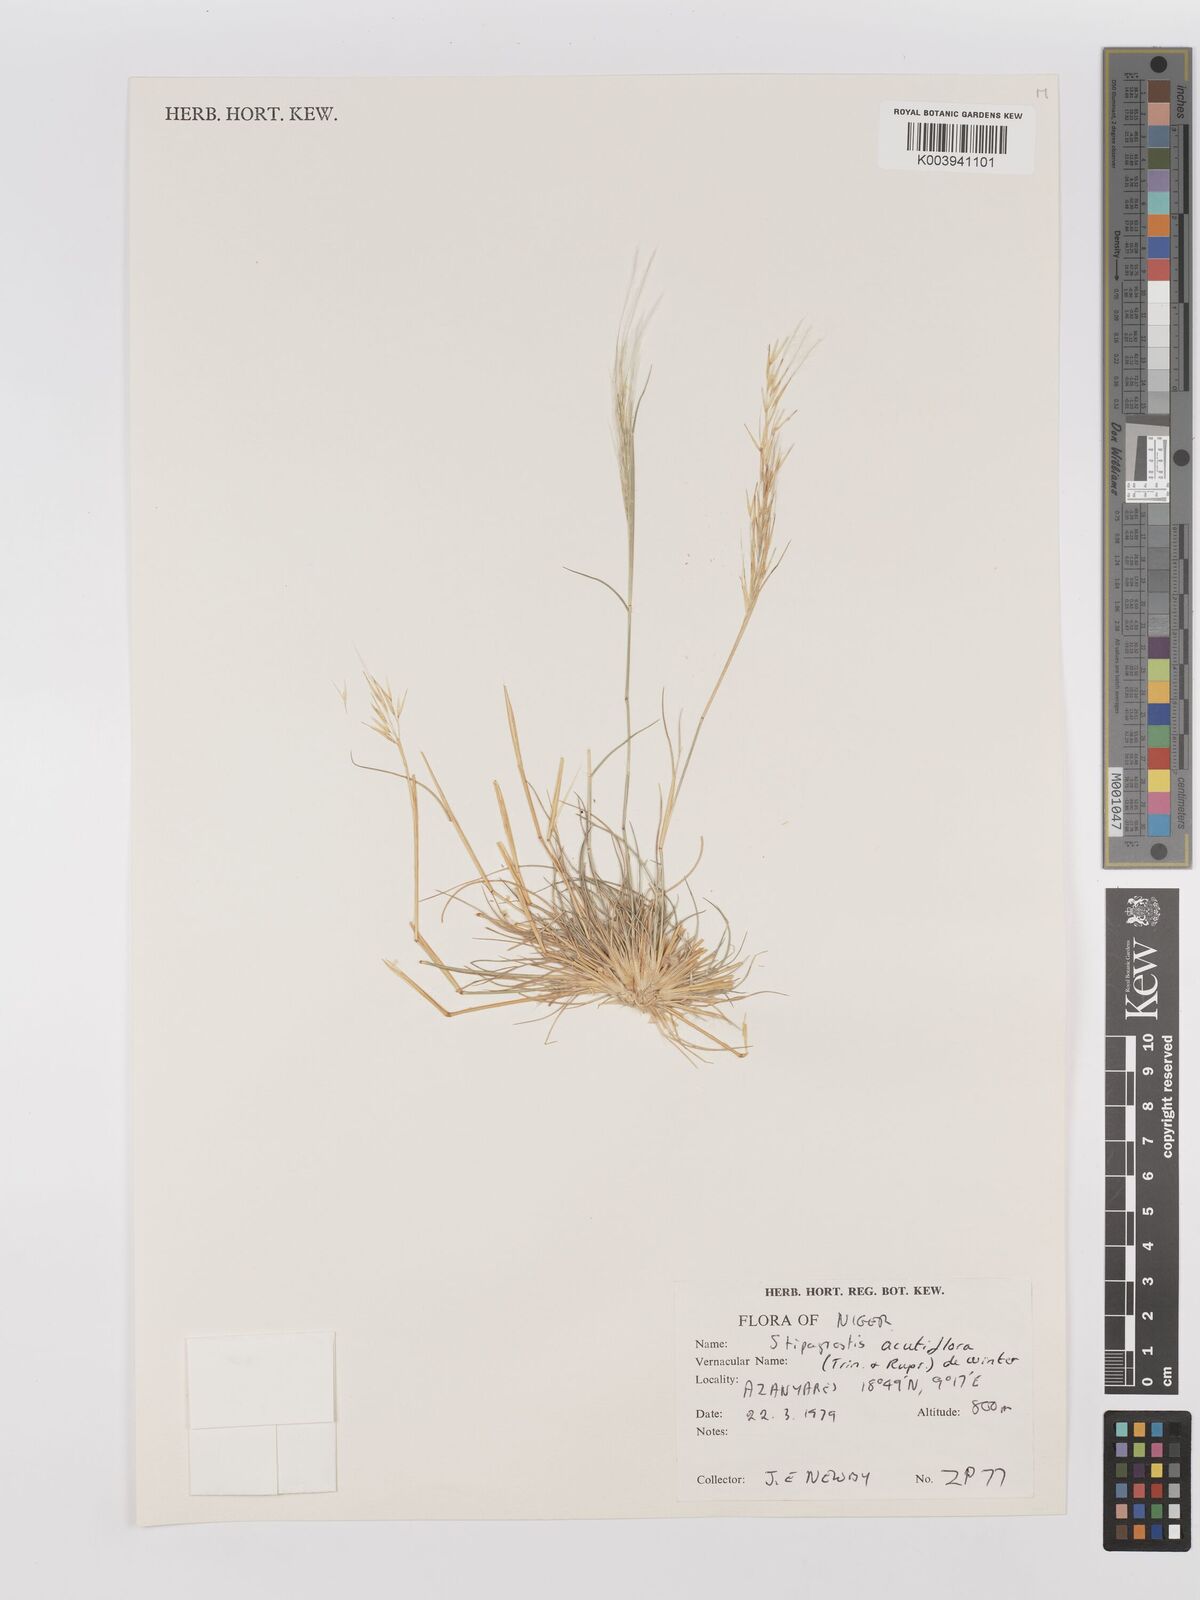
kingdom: Plantae
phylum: Tracheophyta
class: Liliopsida
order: Poales
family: Poaceae
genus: Stipagrostis
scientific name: Stipagrostis acutiflora
